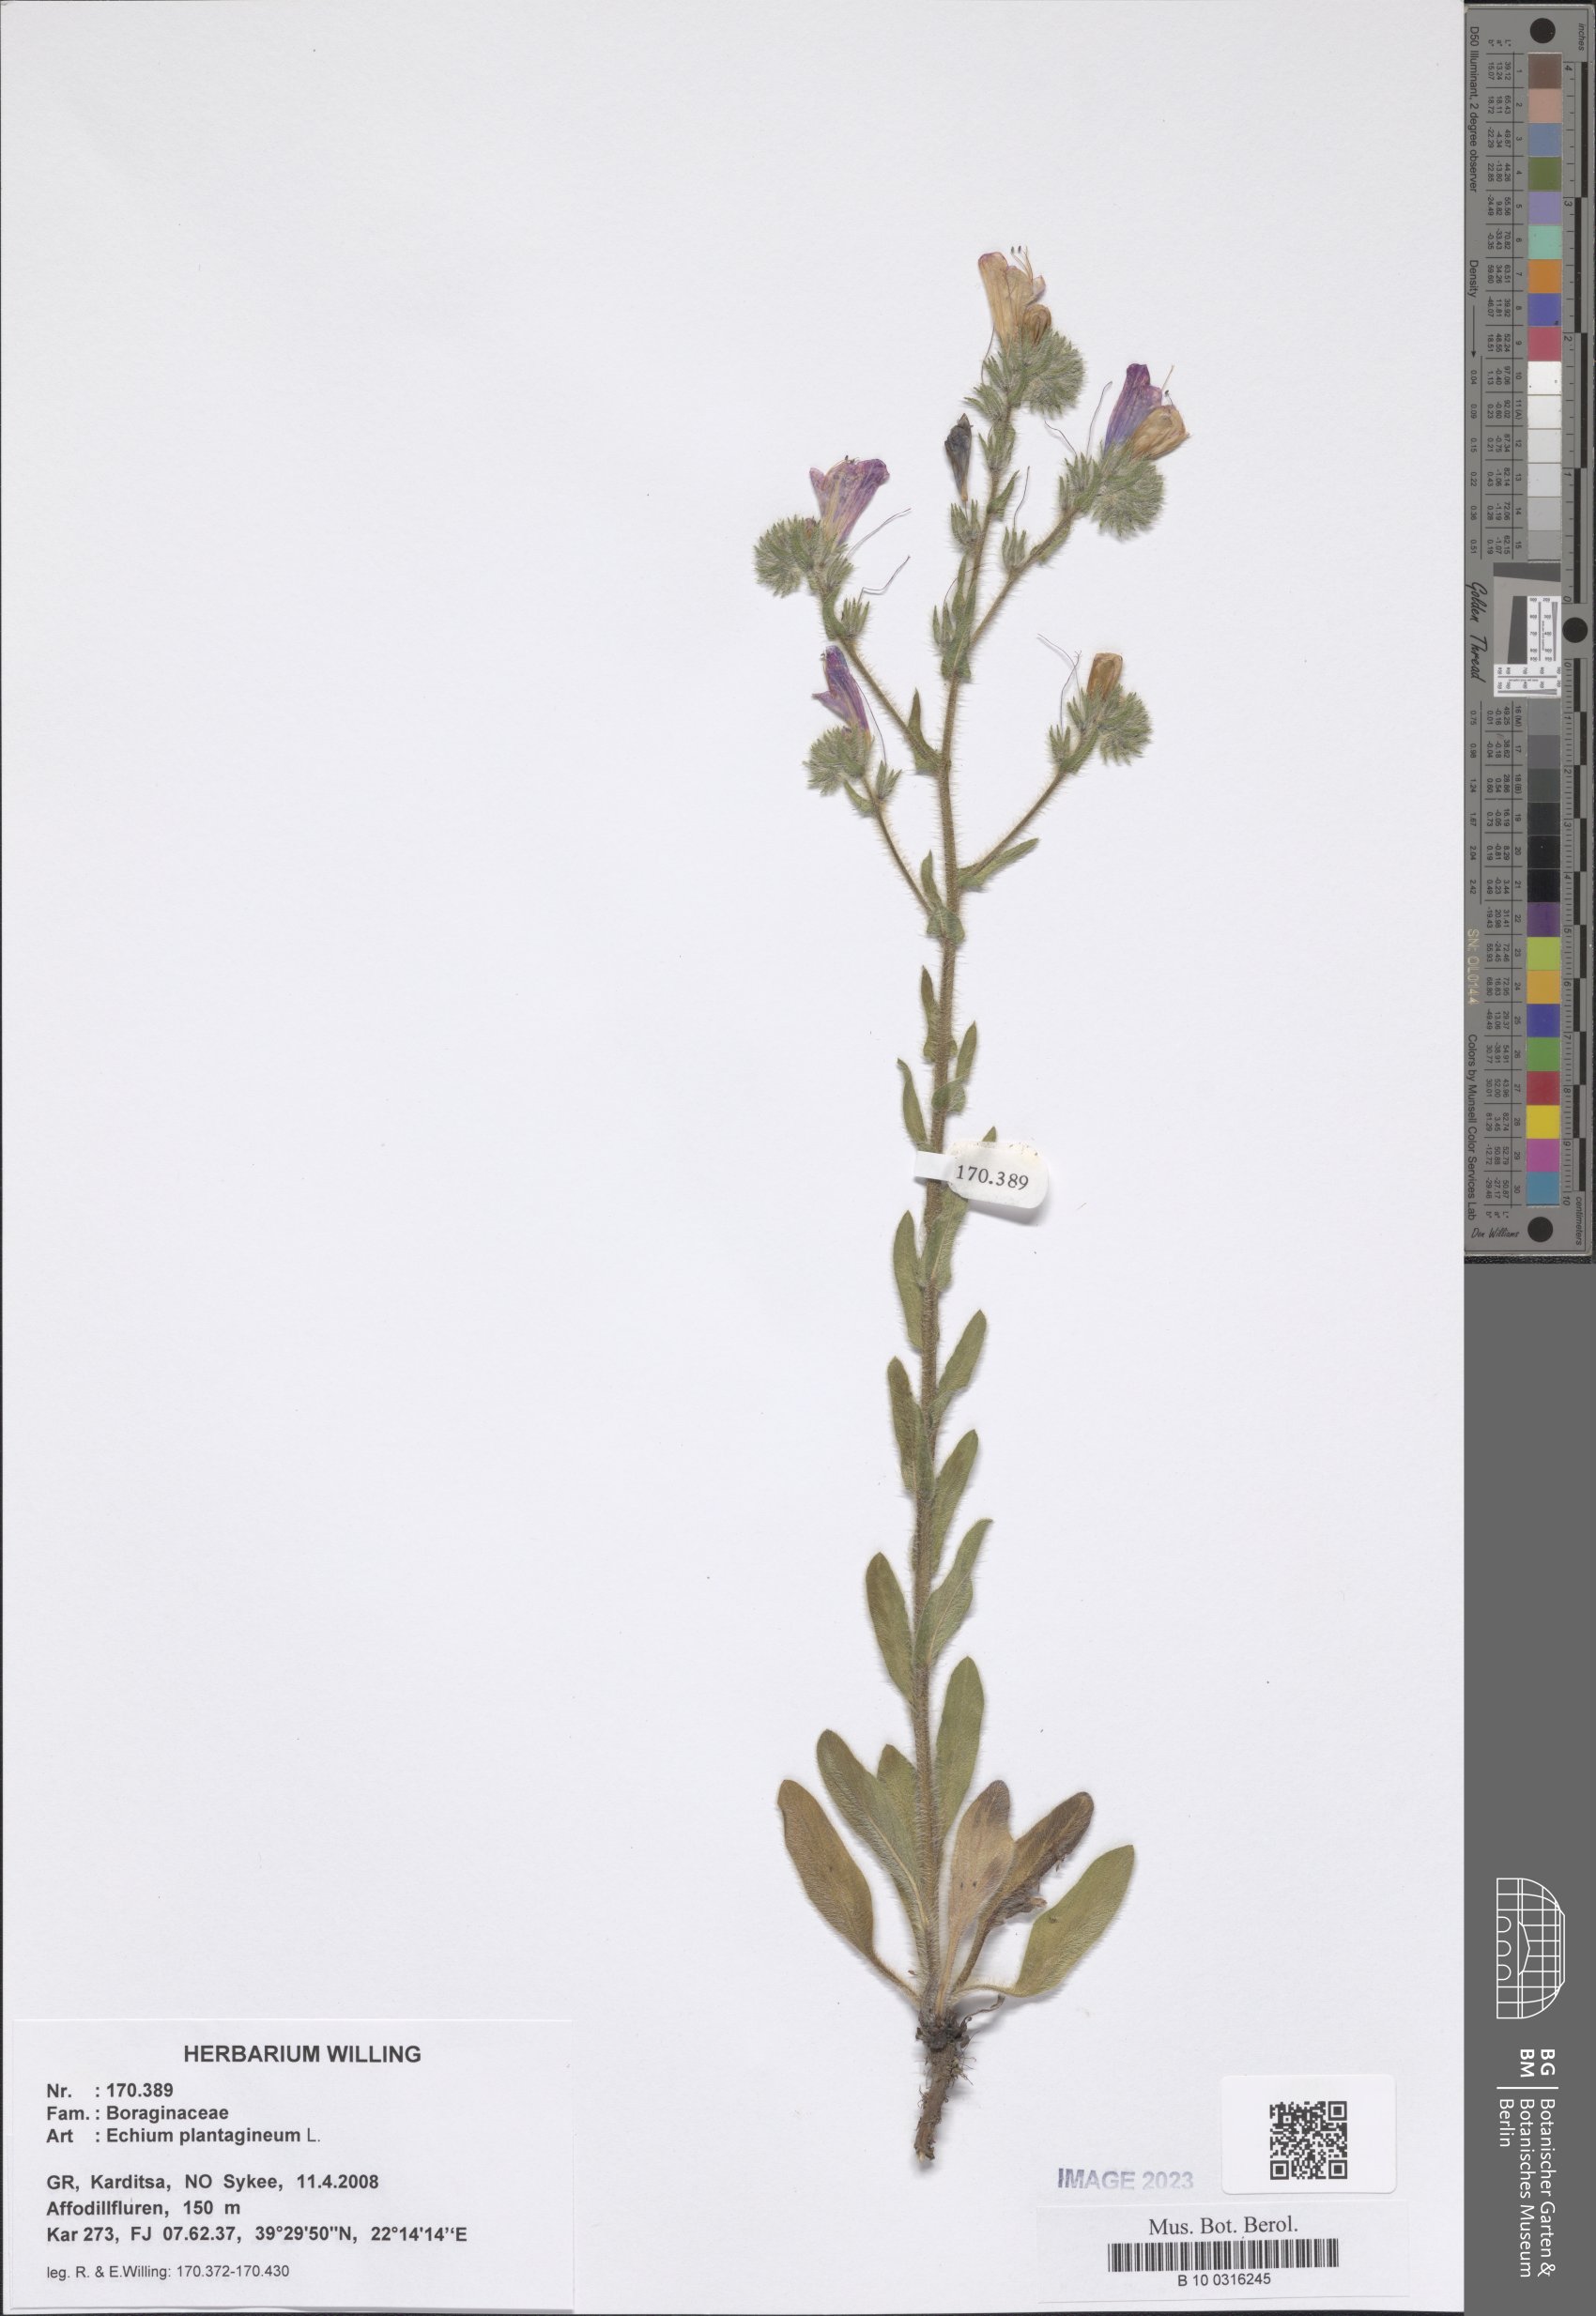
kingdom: Plantae
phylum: Tracheophyta
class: Magnoliopsida
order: Boraginales
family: Boraginaceae
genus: Echium
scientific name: Echium plantagineum
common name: Purple viper's-bugloss
